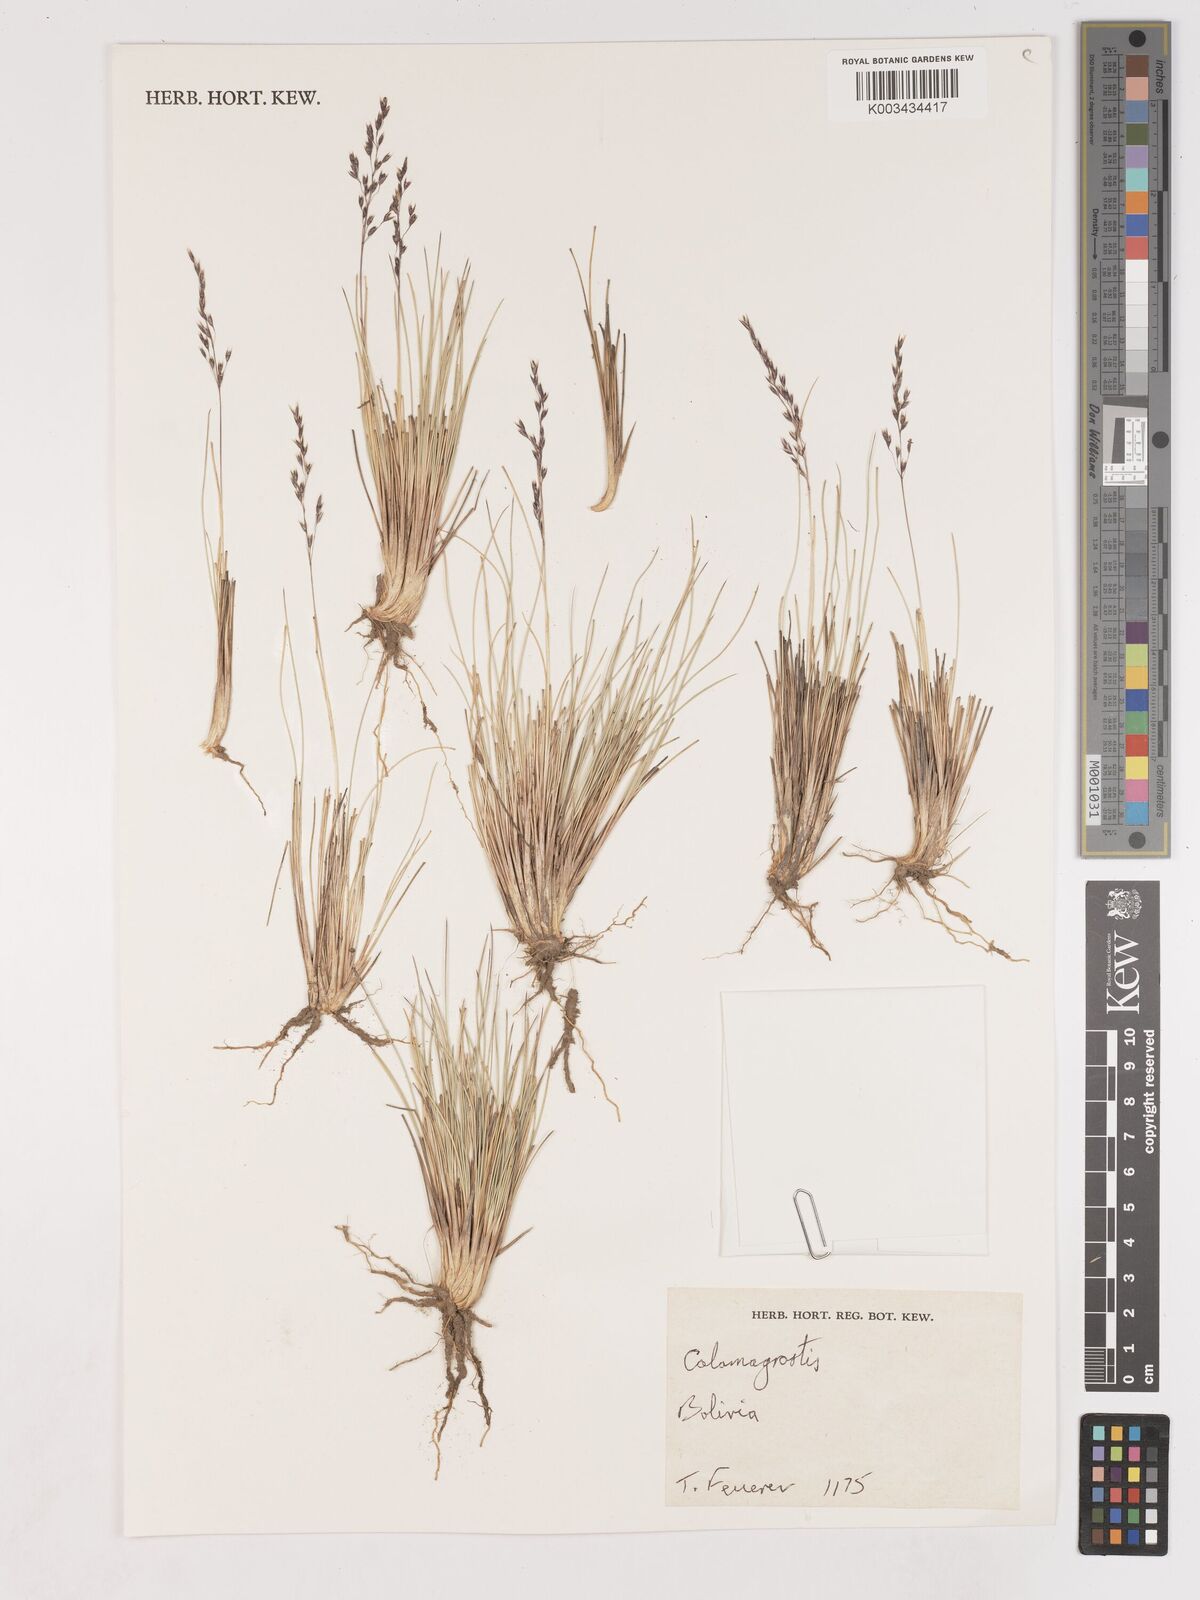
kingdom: Plantae
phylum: Tracheophyta
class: Liliopsida
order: Poales
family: Poaceae
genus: Cinnagrostis
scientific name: Cinnagrostis filifolia
